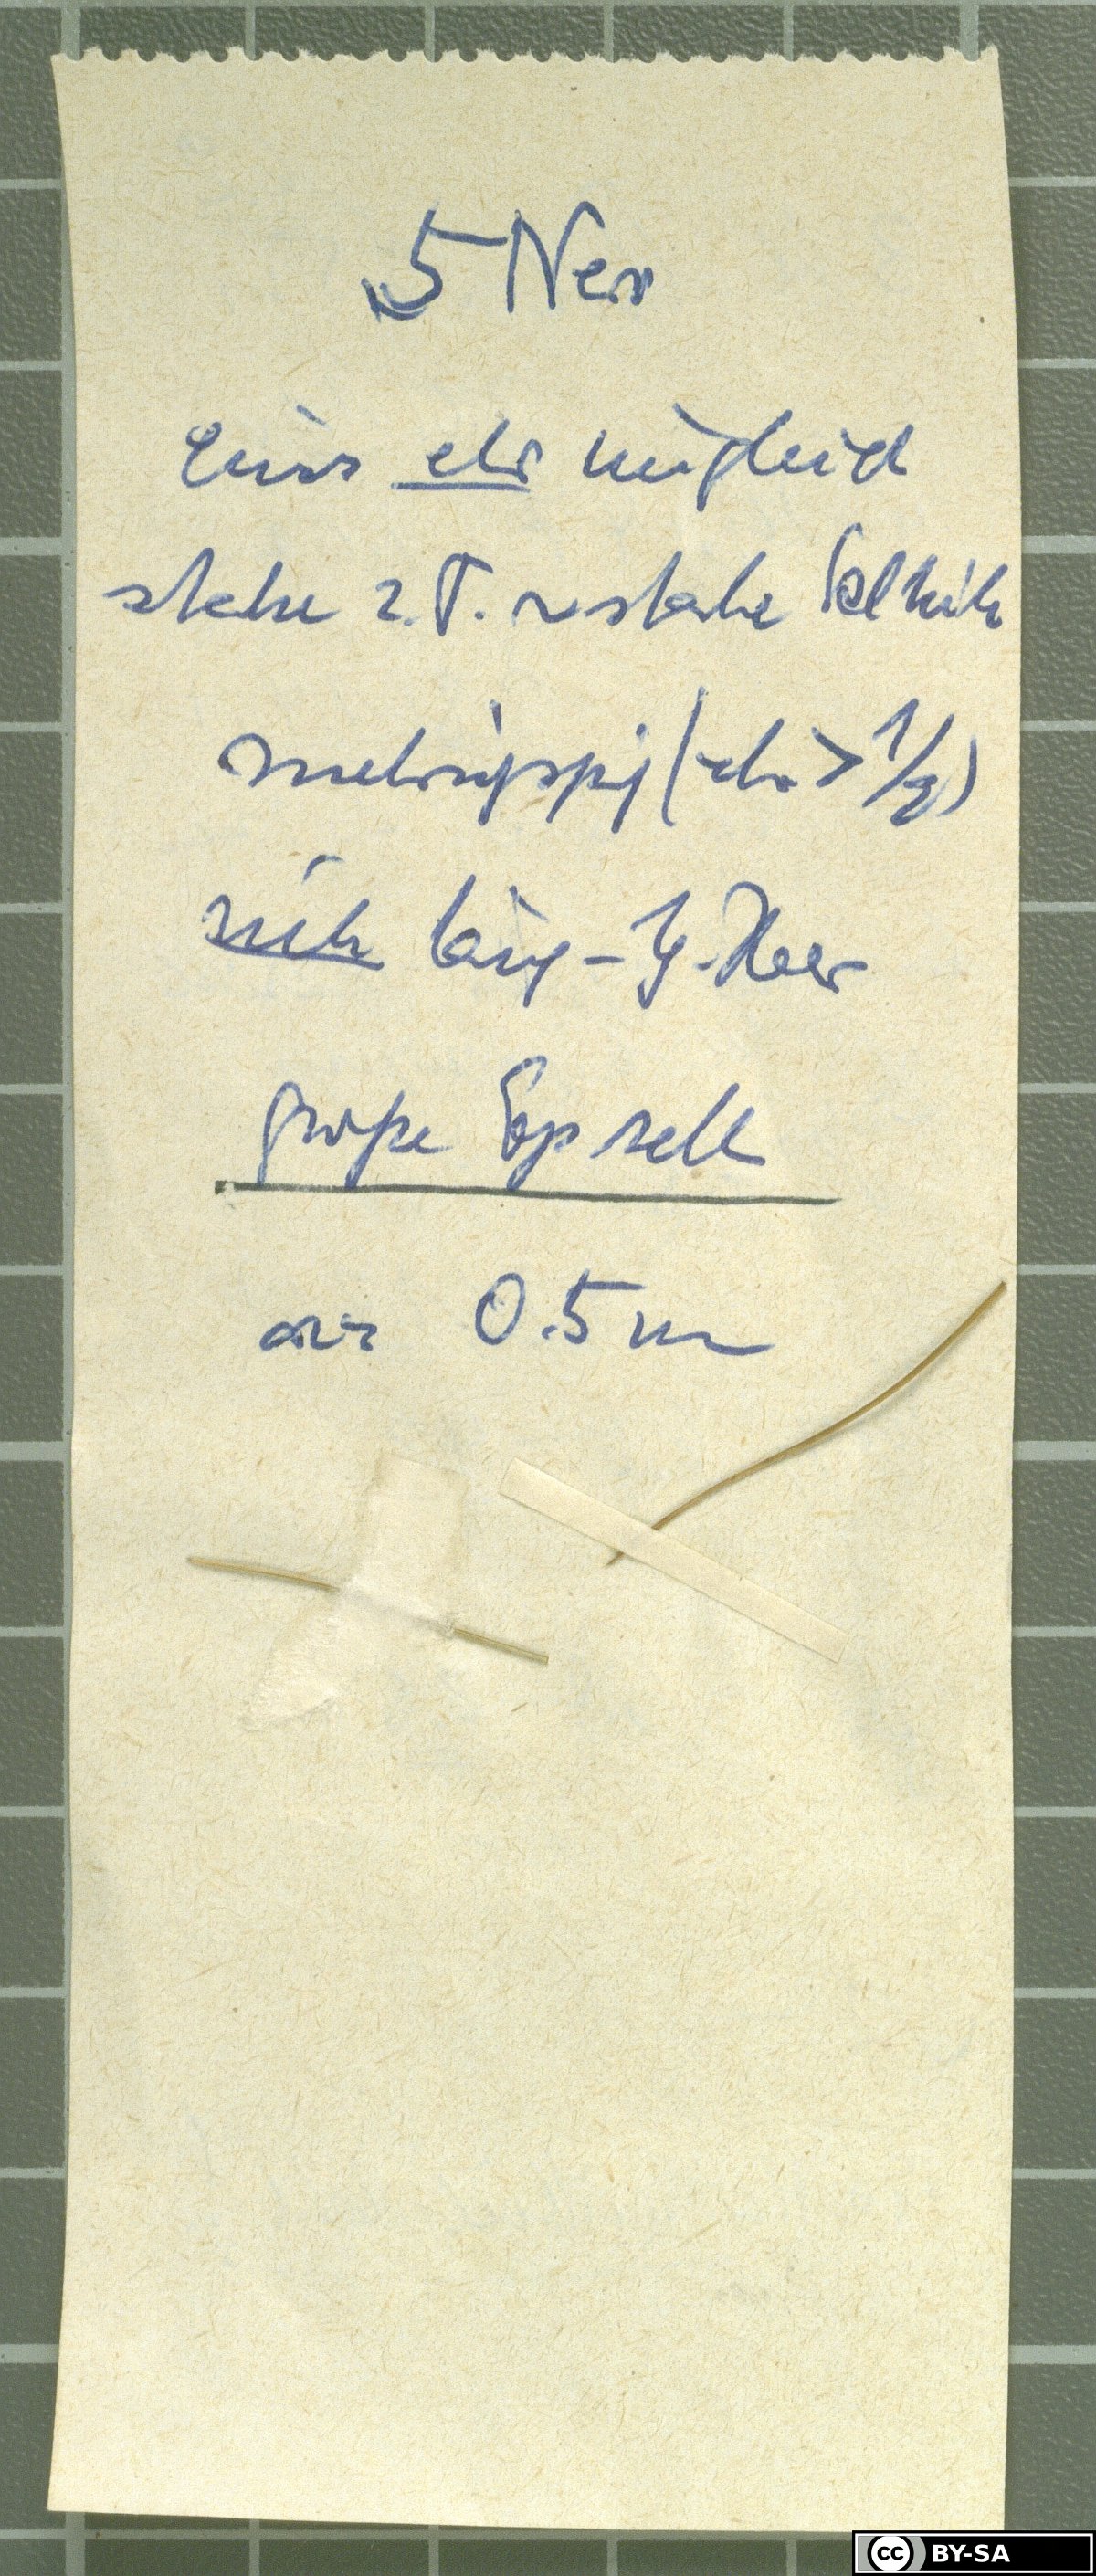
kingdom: Plantae
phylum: Tracheophyta
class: Liliopsida
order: Poales
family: Poaceae
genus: Festuca
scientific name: Festuca violacea
